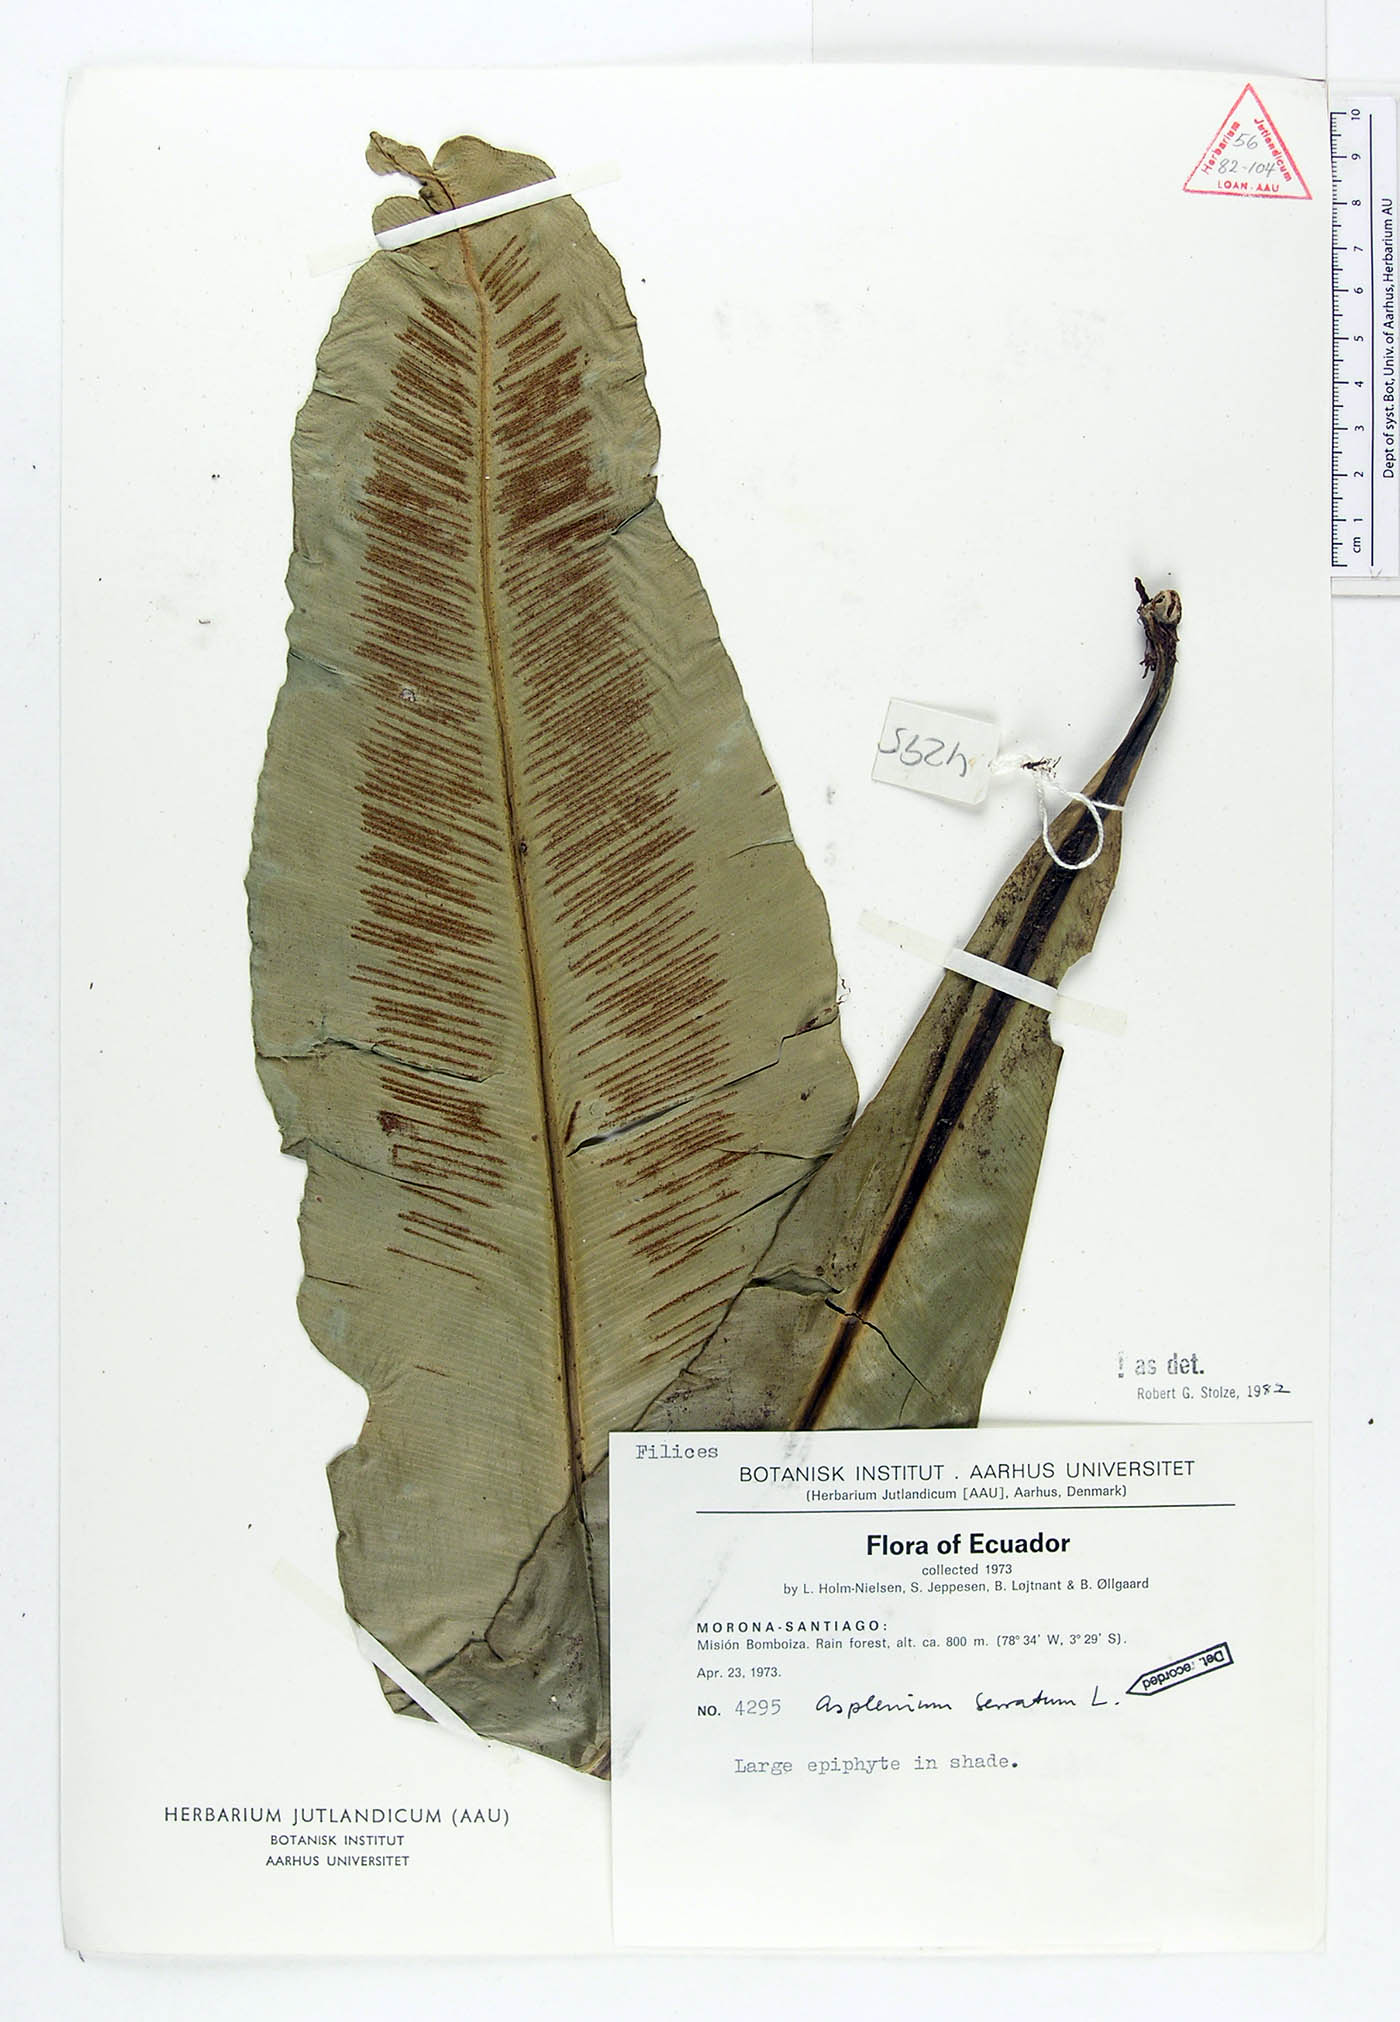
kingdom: Plantae
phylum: Tracheophyta
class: Polypodiopsida
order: Polypodiales
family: Aspleniaceae
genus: Asplenium
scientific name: Asplenium serratum
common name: Wild birdnest fern
